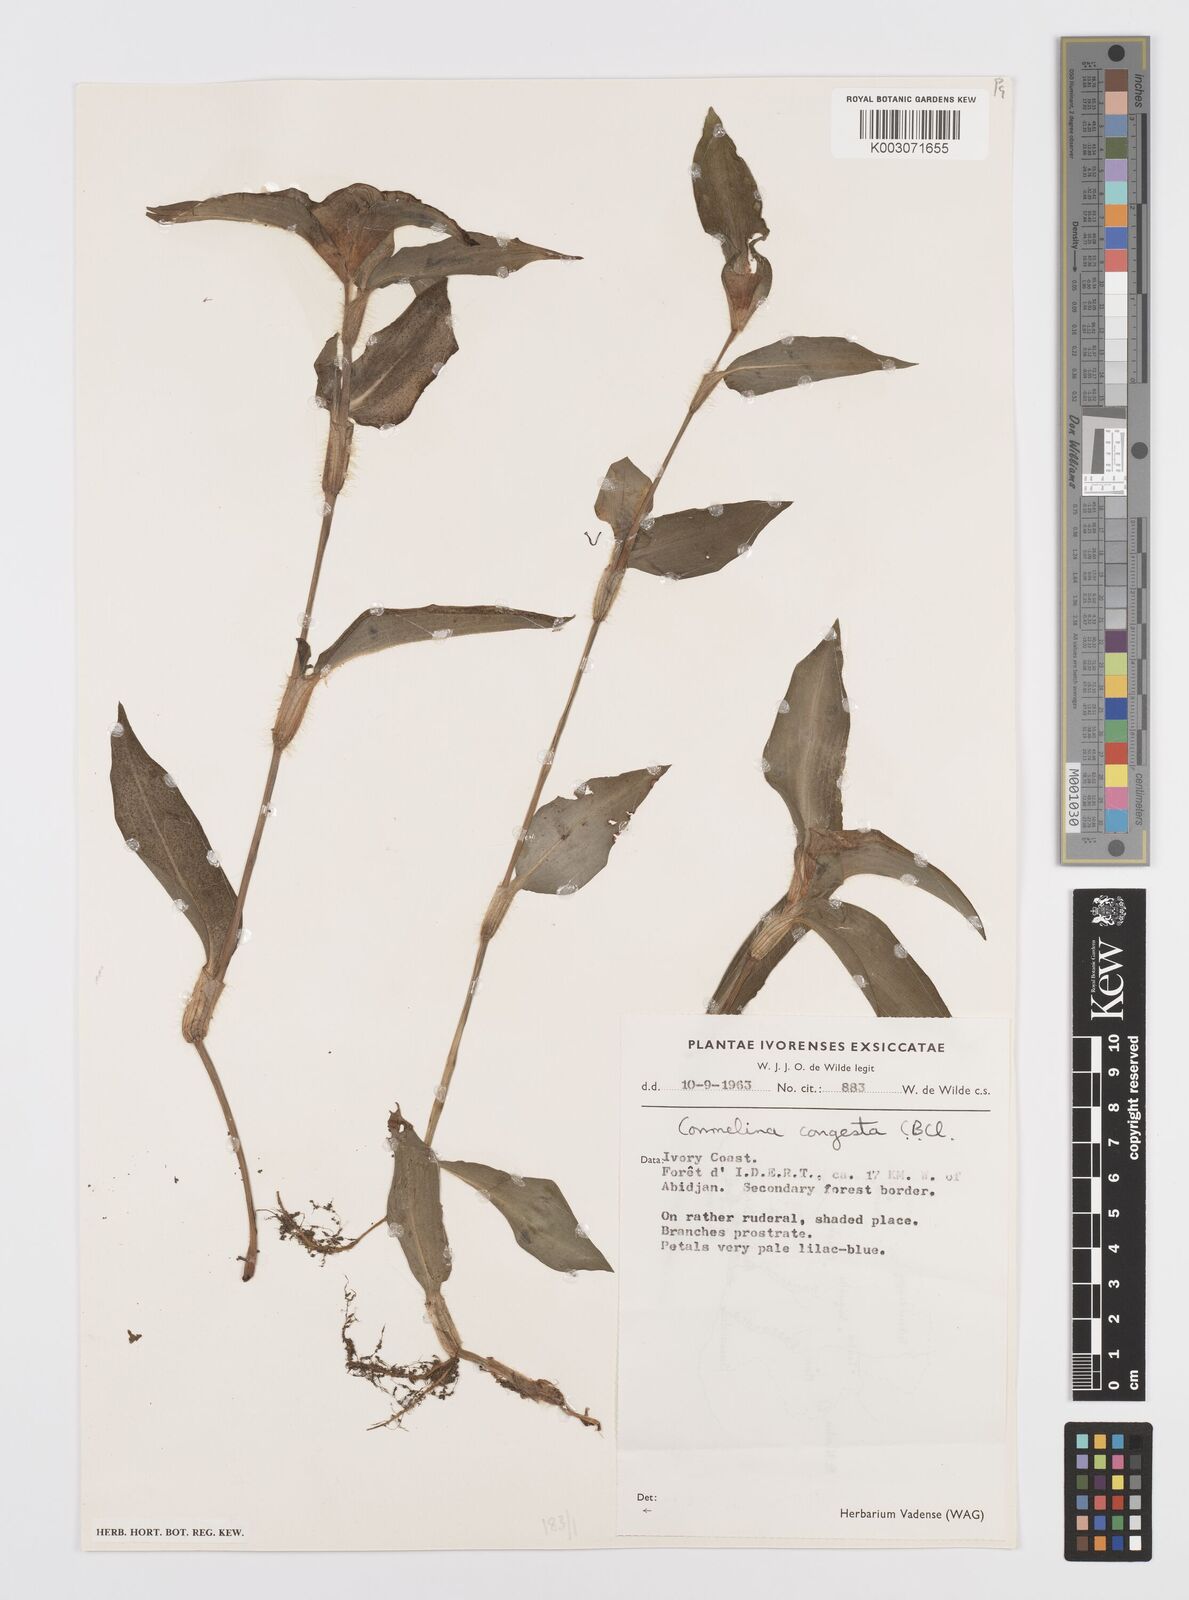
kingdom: Plantae
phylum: Tracheophyta
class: Liliopsida
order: Commelinales
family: Commelinaceae
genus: Commelina
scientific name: Commelina congesta
